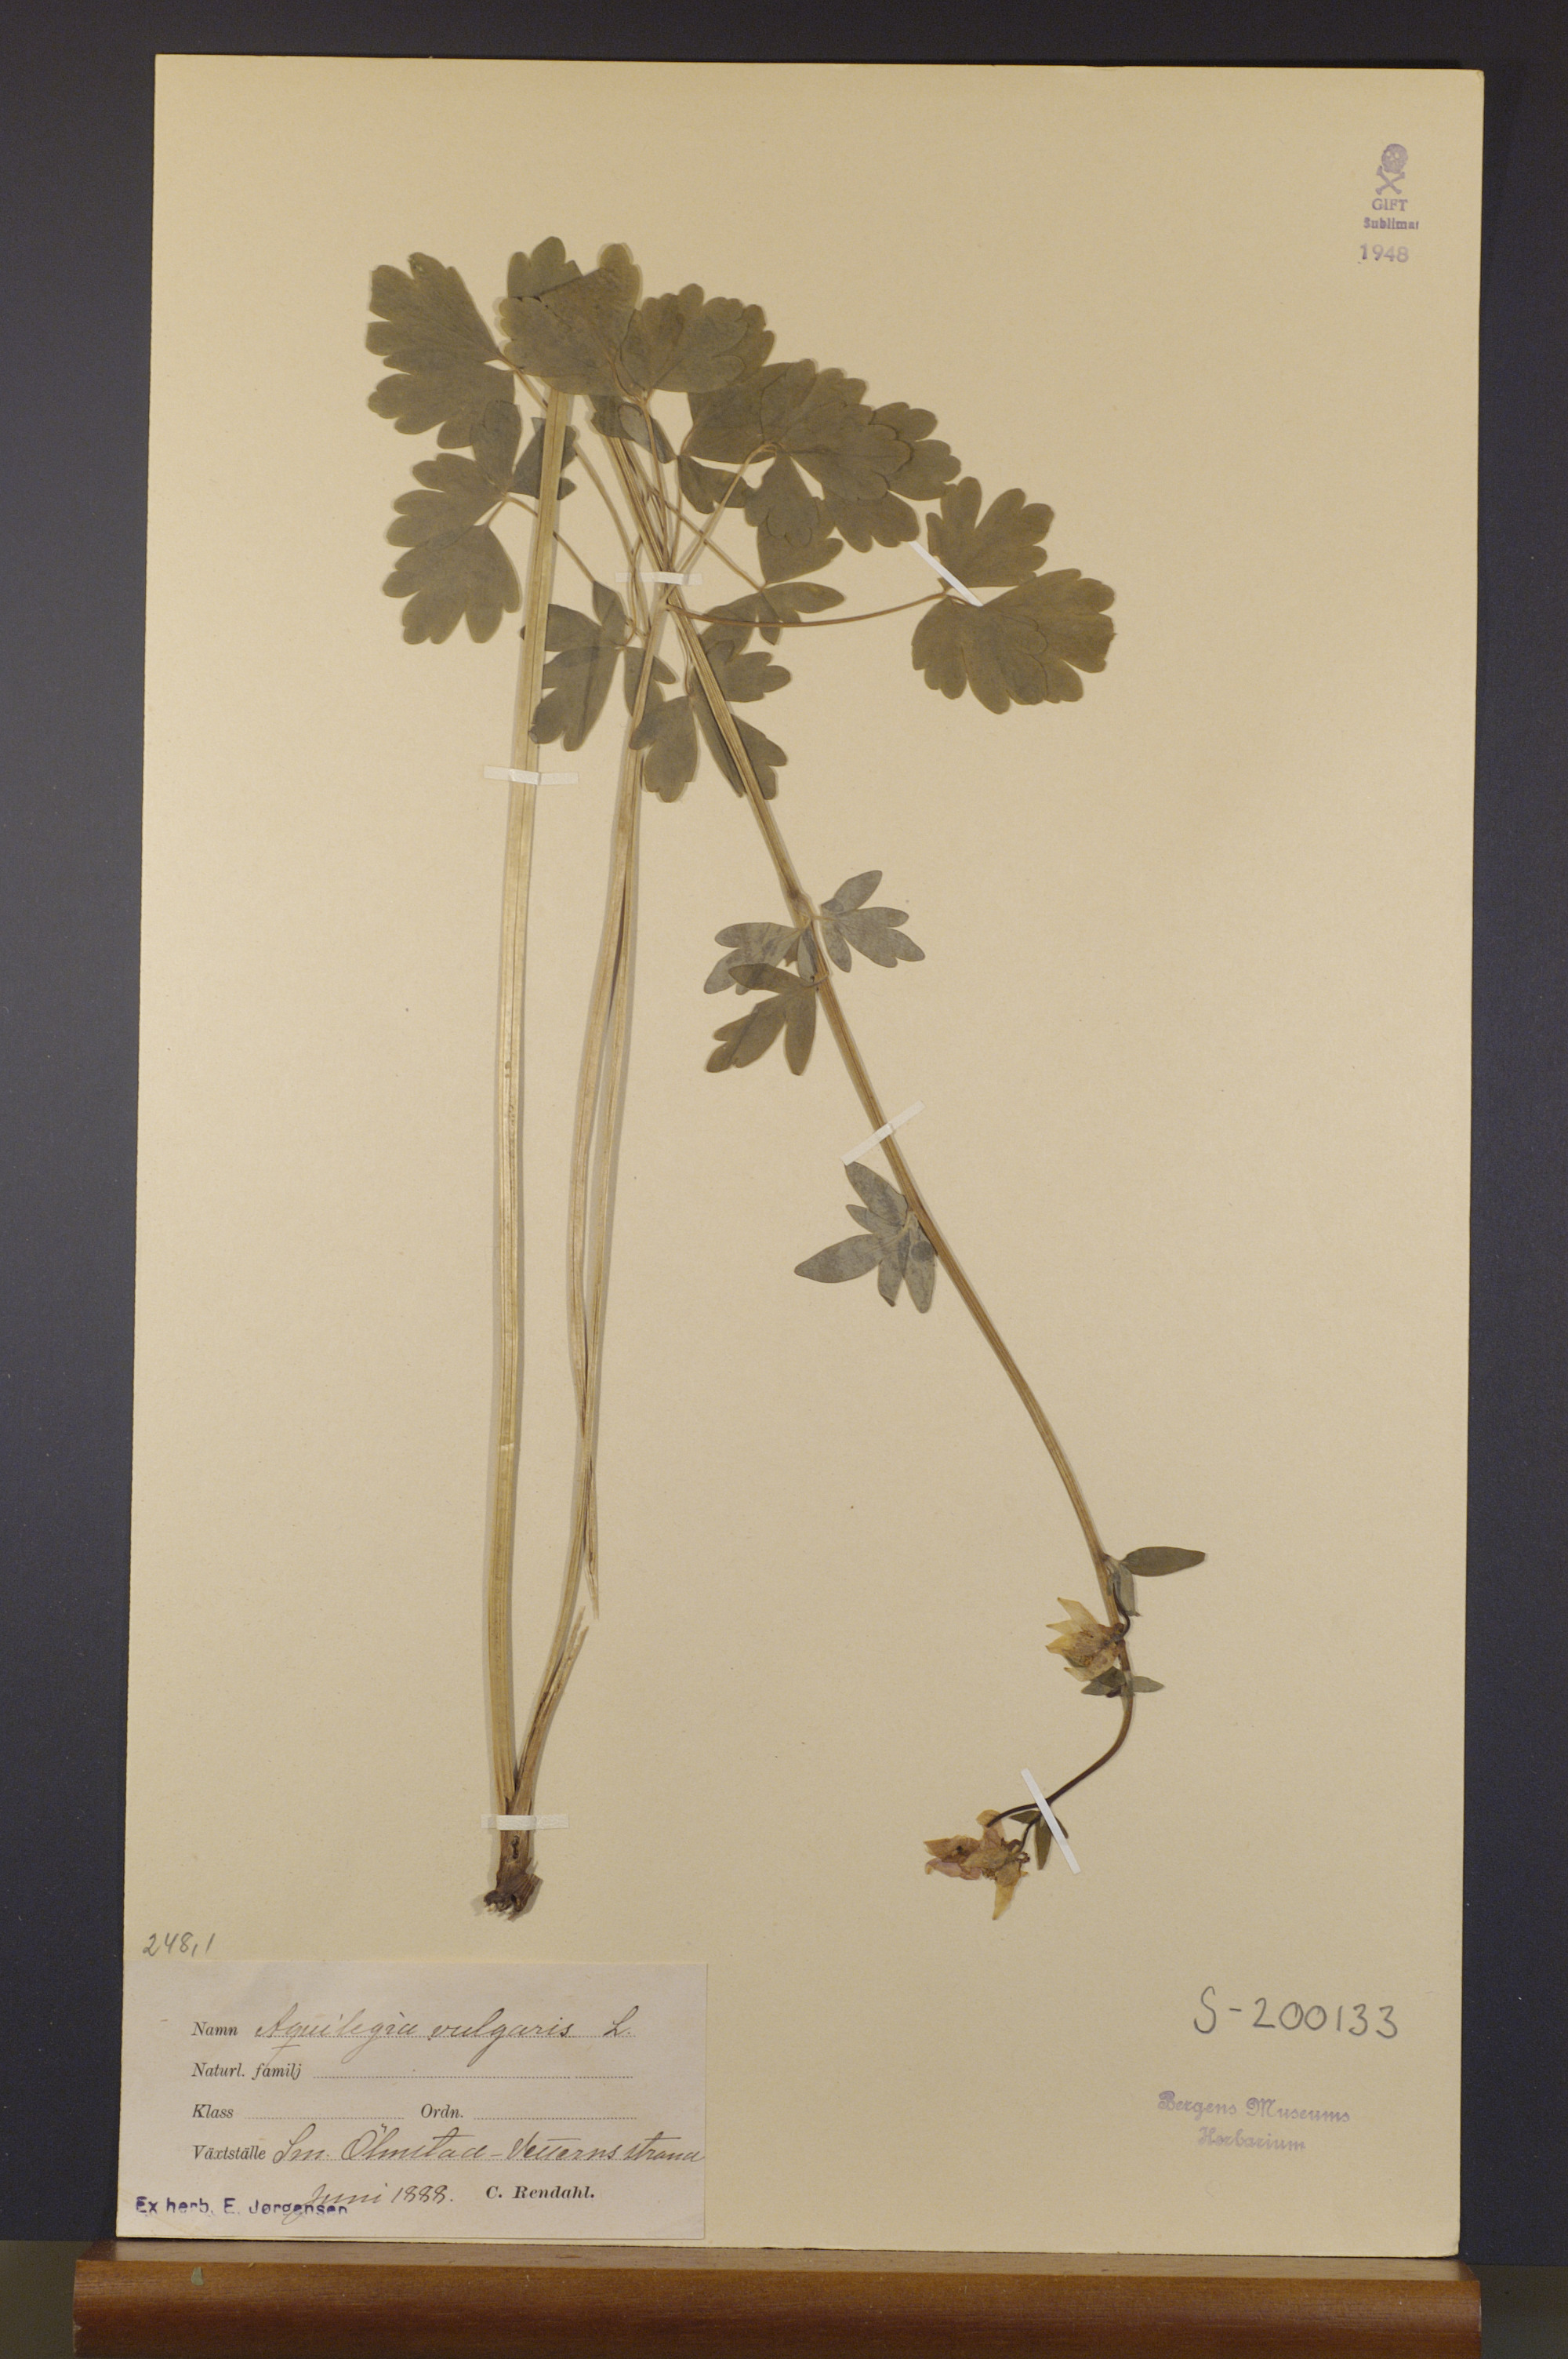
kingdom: Plantae
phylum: Tracheophyta
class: Magnoliopsida
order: Ranunculales
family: Ranunculaceae
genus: Aquilegia
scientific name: Aquilegia vulgaris
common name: Columbine
